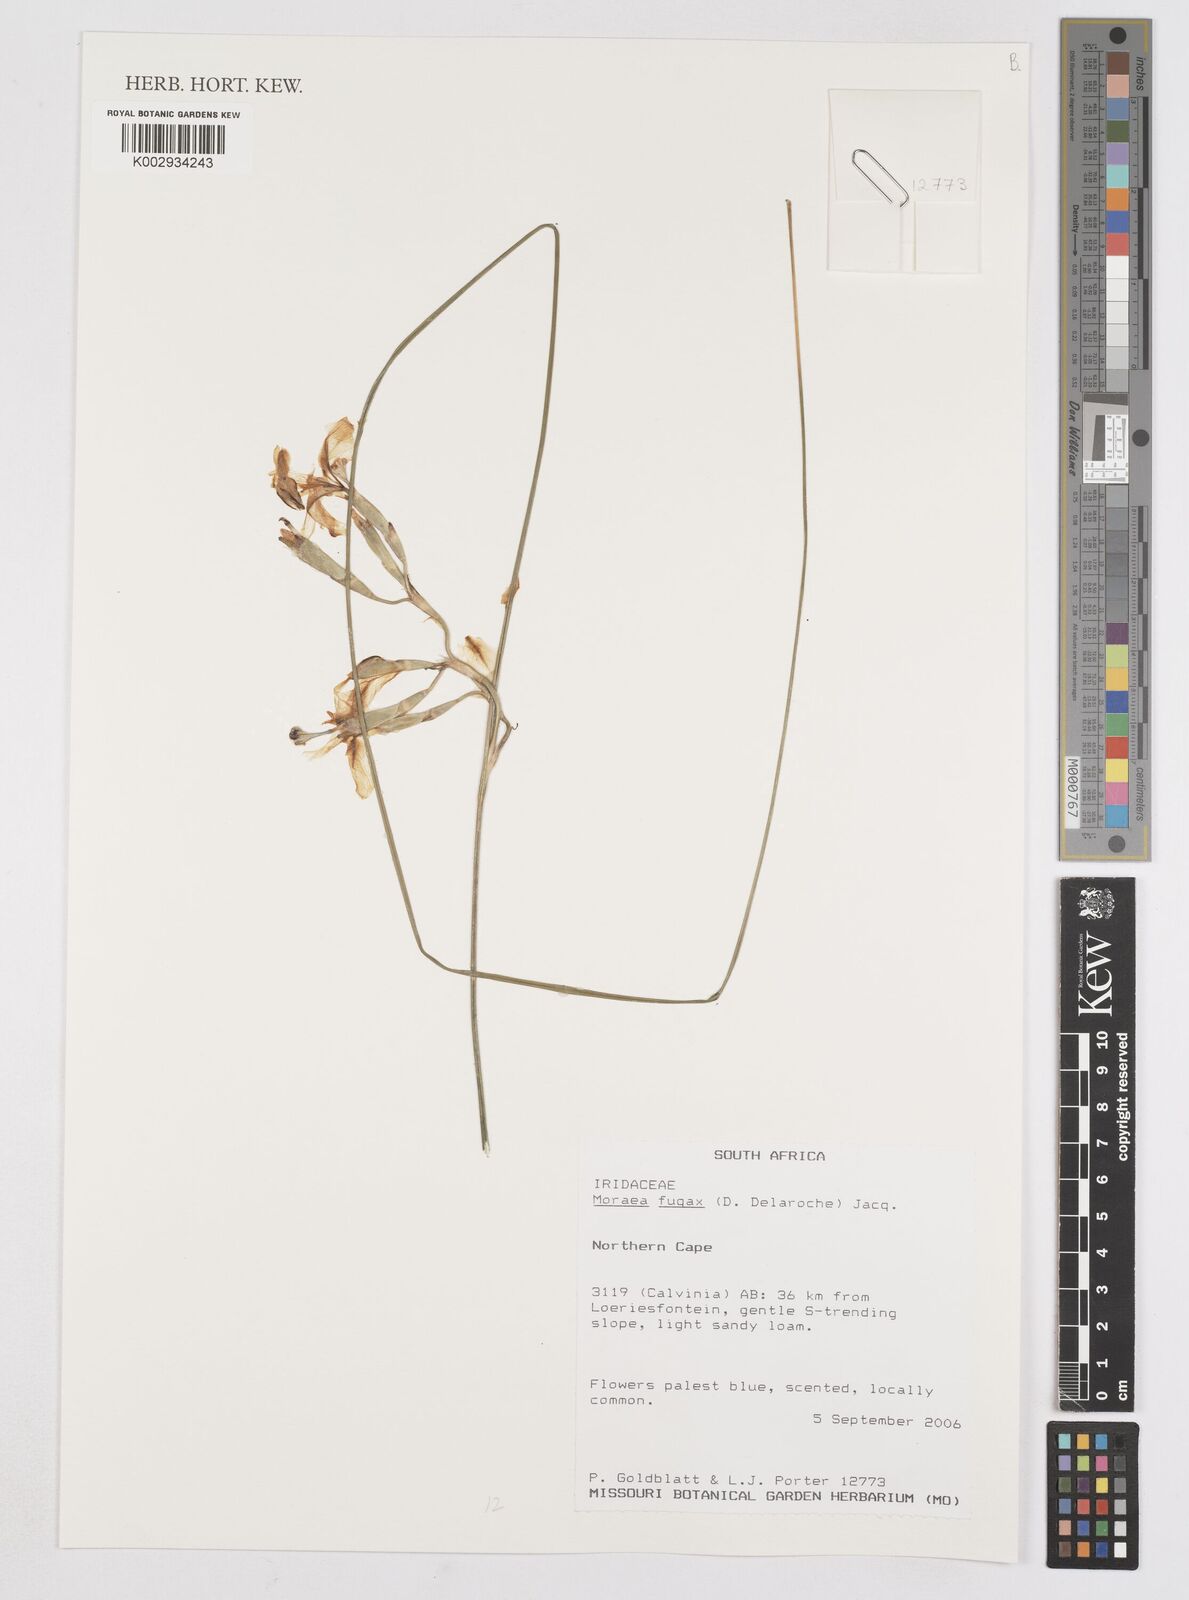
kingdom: Plantae
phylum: Tracheophyta
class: Liliopsida
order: Asparagales
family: Iridaceae
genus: Moraea
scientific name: Moraea fugax
